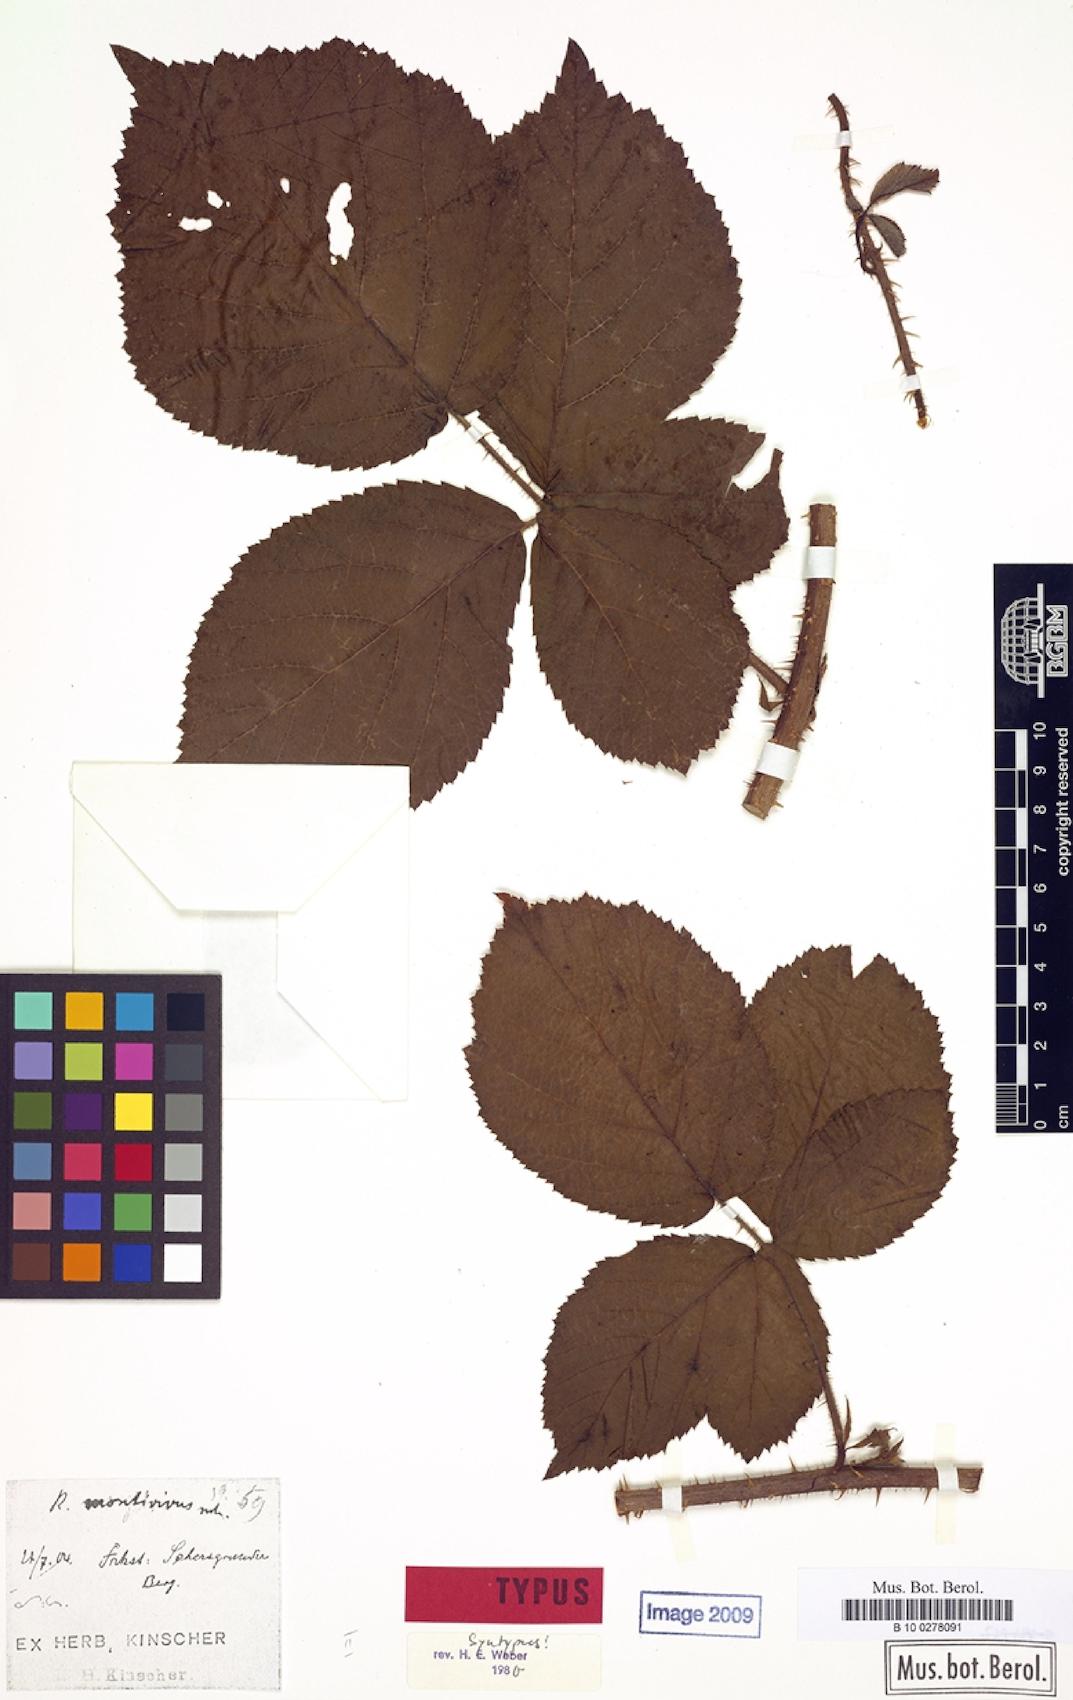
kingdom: Plantae
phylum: Tracheophyta
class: Magnoliopsida
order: Rosales
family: Rosaceae
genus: Rubus
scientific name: Rubus dollnensis
